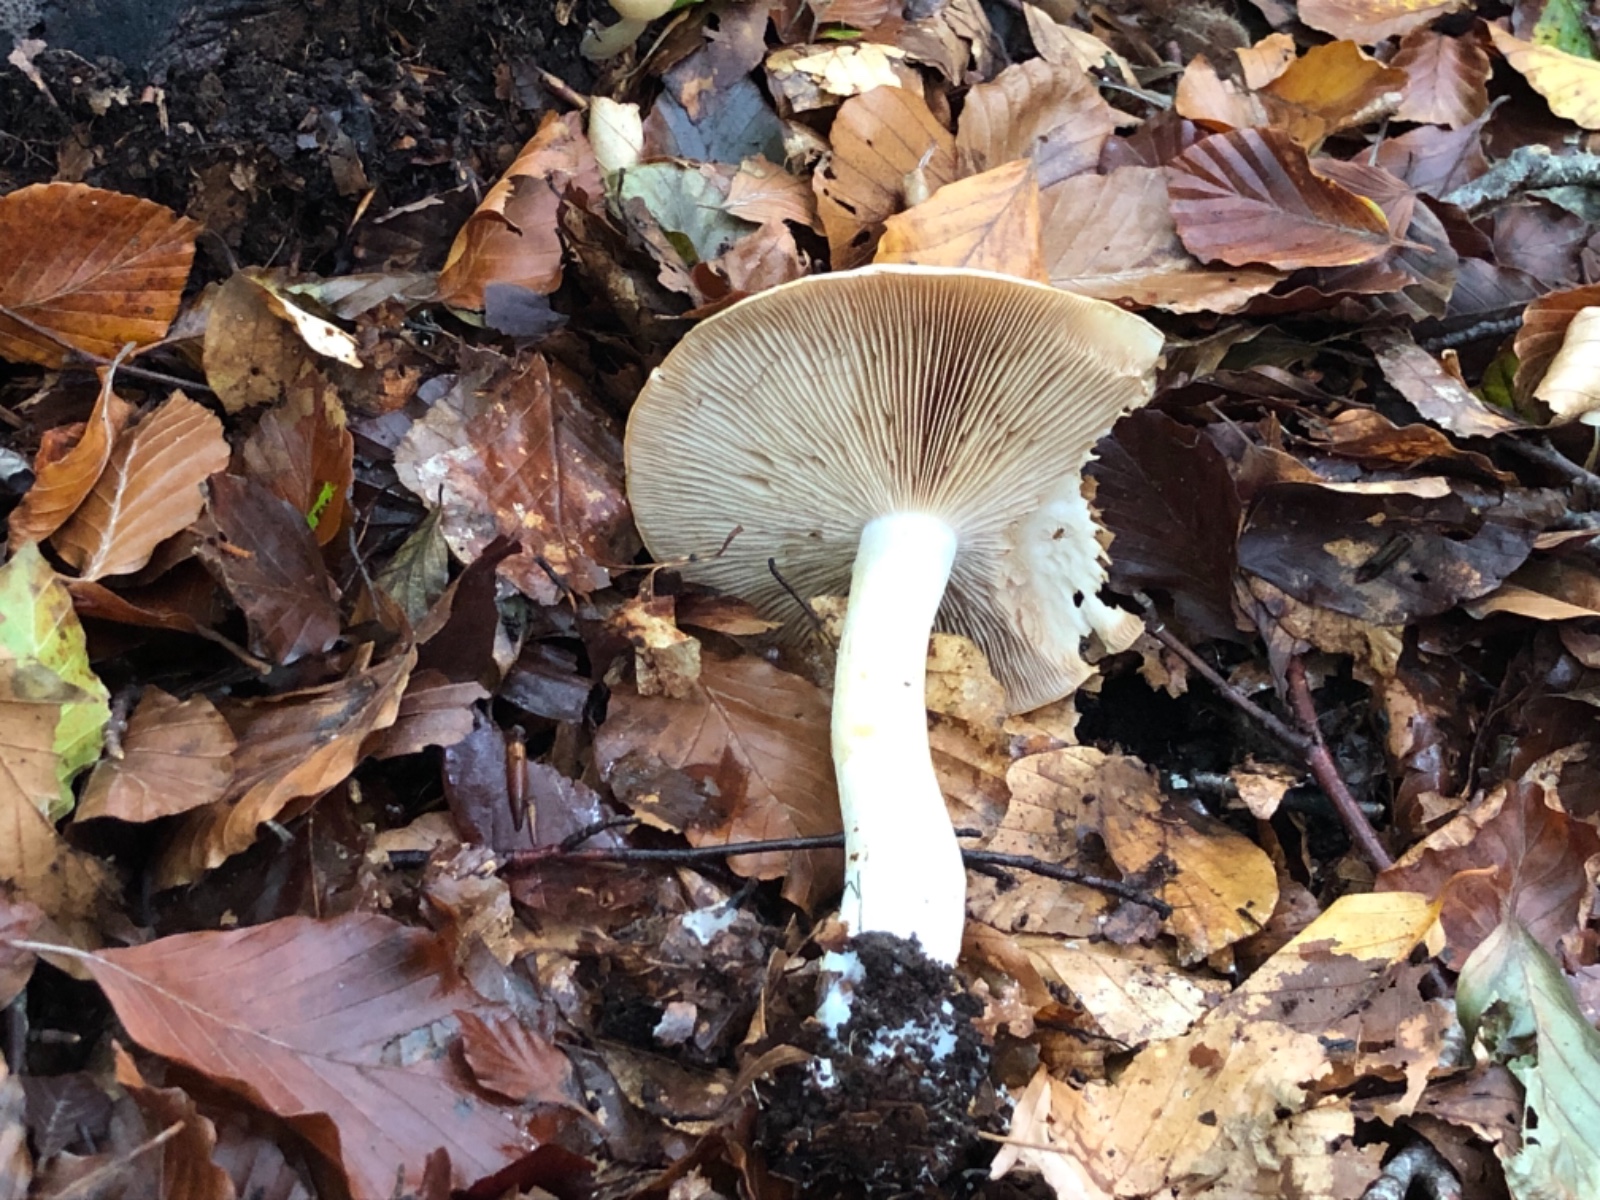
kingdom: Fungi
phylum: Basidiomycota
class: Agaricomycetes
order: Agaricales
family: Cortinariaceae
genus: Phlegmacium
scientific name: Phlegmacium cliduchus
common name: majs-slørhat
